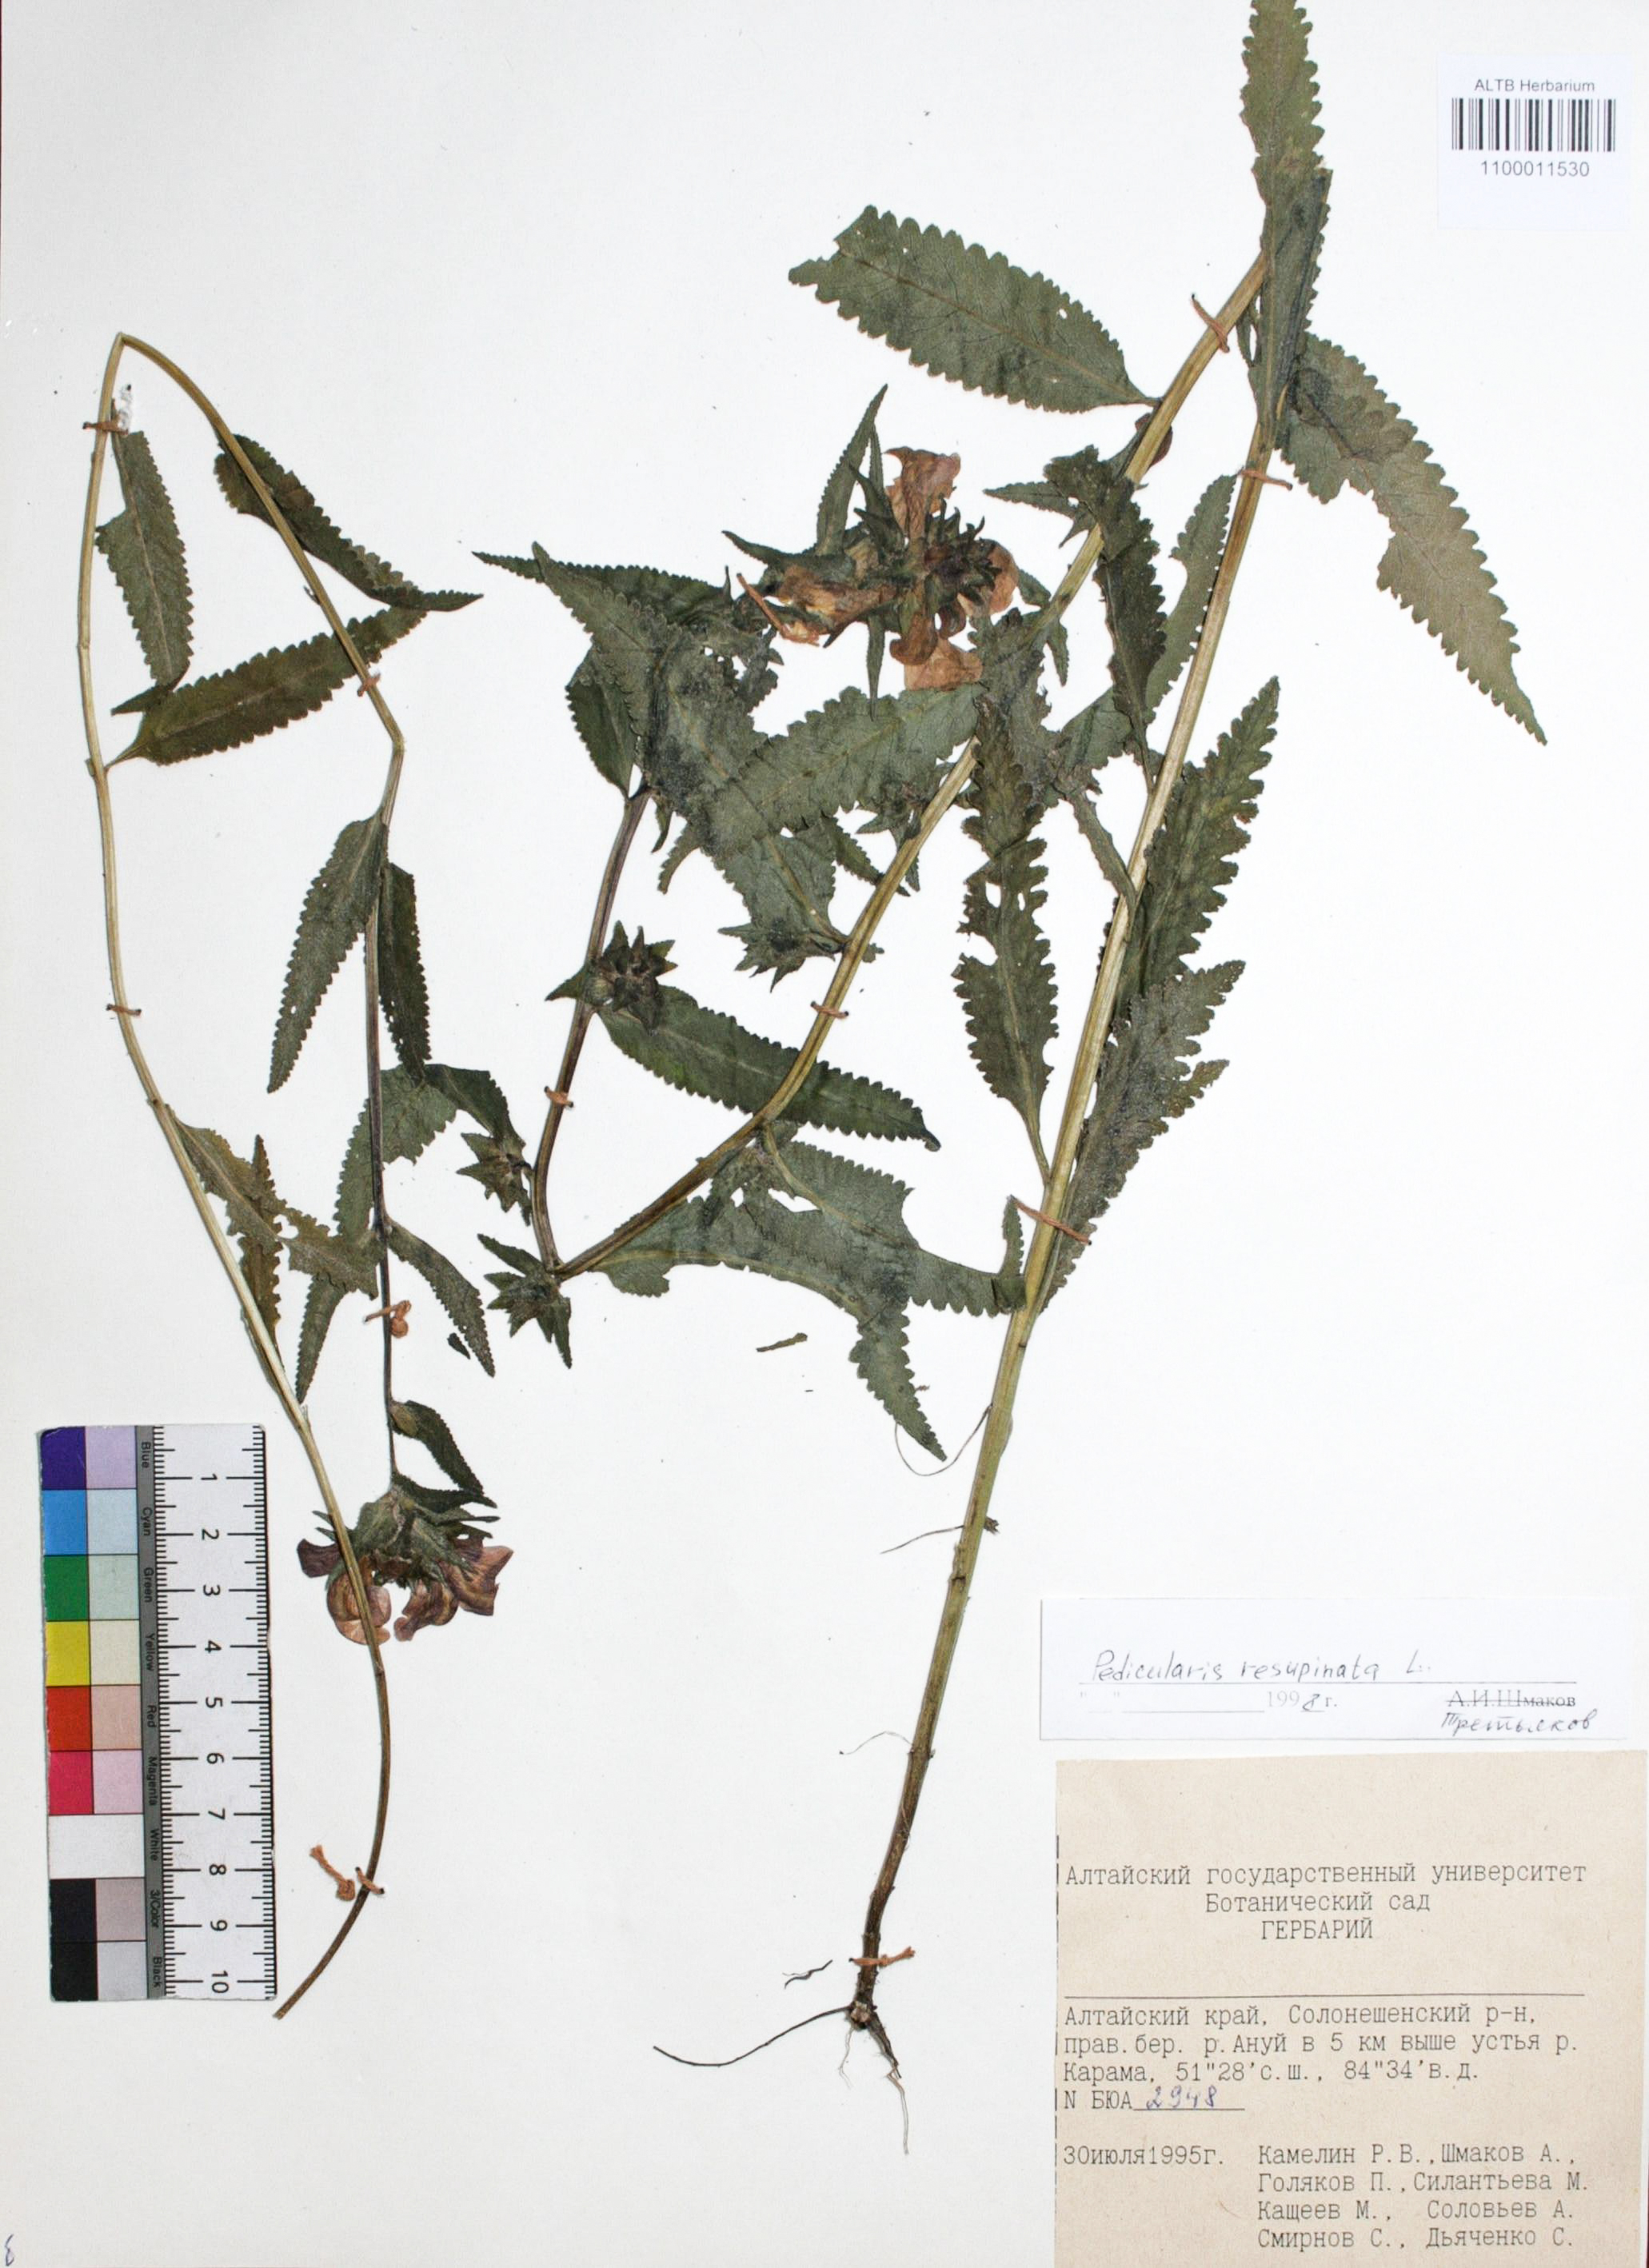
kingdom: Plantae
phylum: Tracheophyta
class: Magnoliopsida
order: Lamiales
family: Orobanchaceae
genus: Pedicularis
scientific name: Pedicularis resupinata
